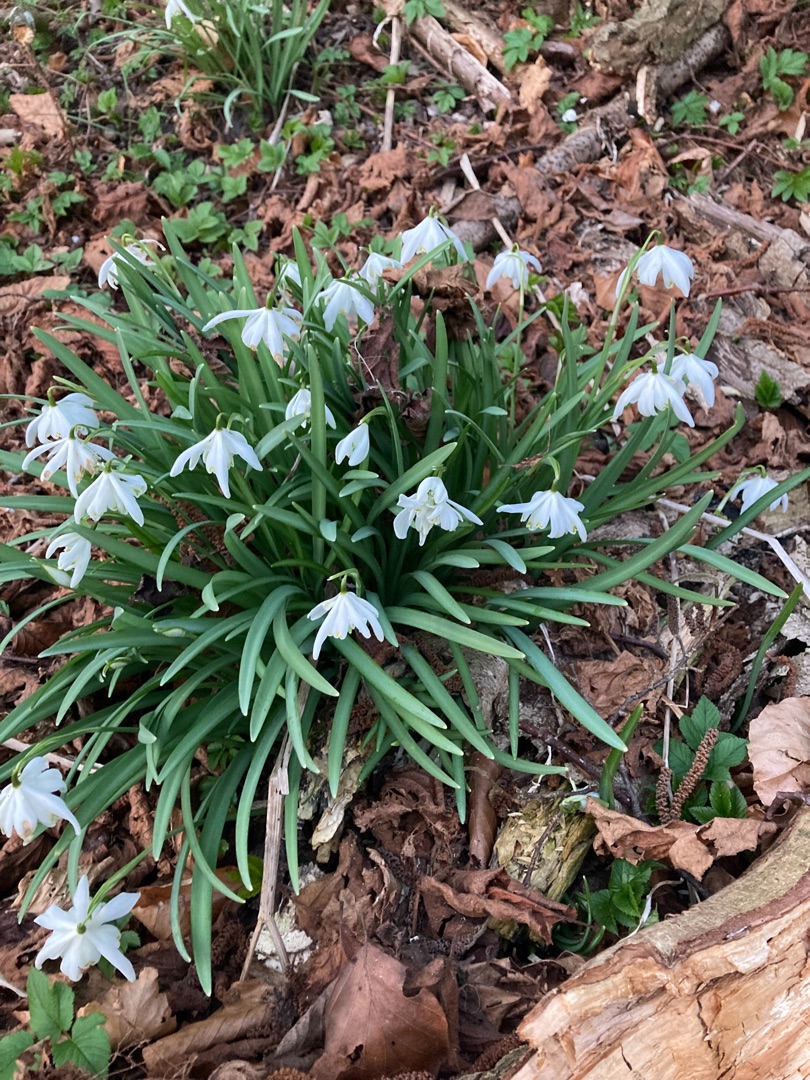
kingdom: Plantae
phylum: Tracheophyta
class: Liliopsida
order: Asparagales
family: Amaryllidaceae
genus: Galanthus
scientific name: Galanthus nivalis
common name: Vintergæk
